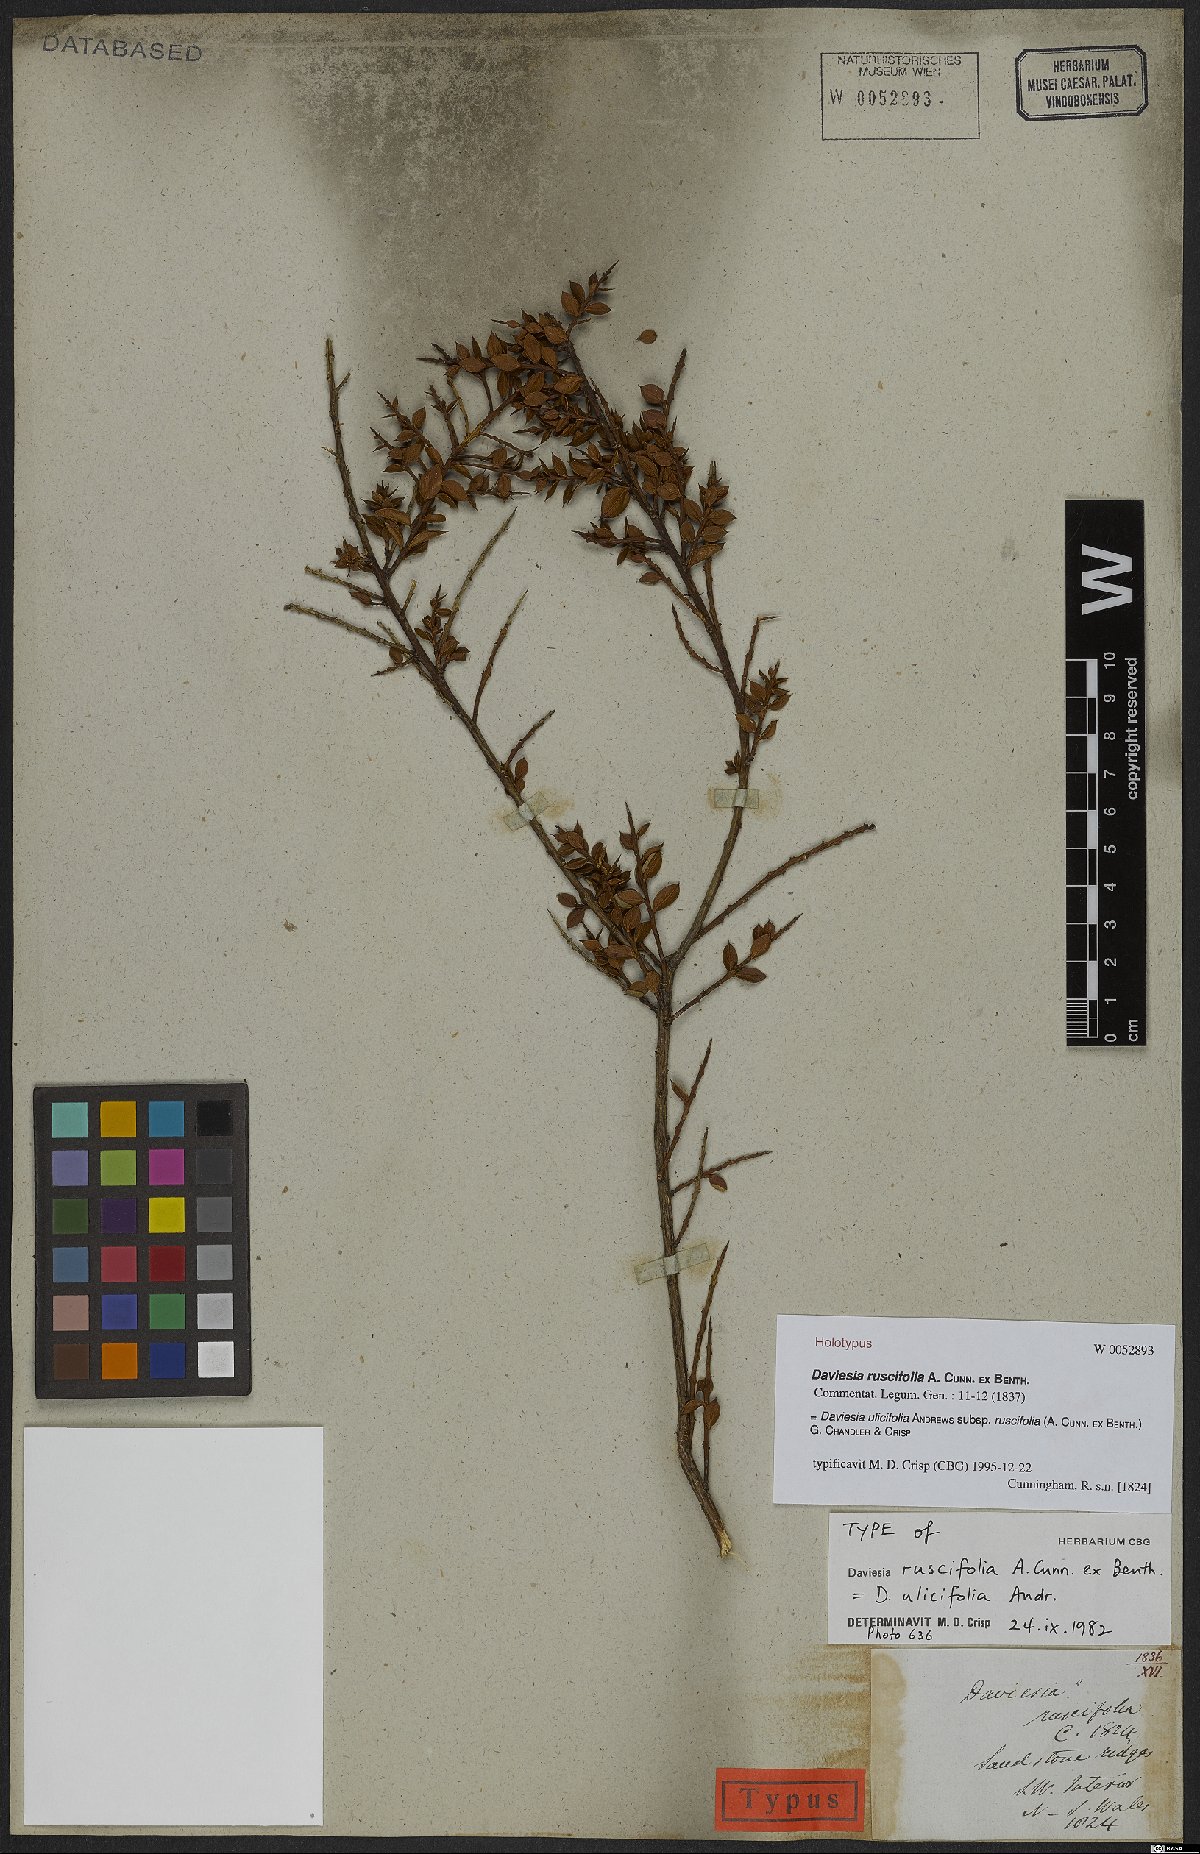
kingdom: Plantae
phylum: Tracheophyta
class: Magnoliopsida
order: Fabales
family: Fabaceae
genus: Daviesia
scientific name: Daviesia ulicifolia
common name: Gorse bitter-pea
